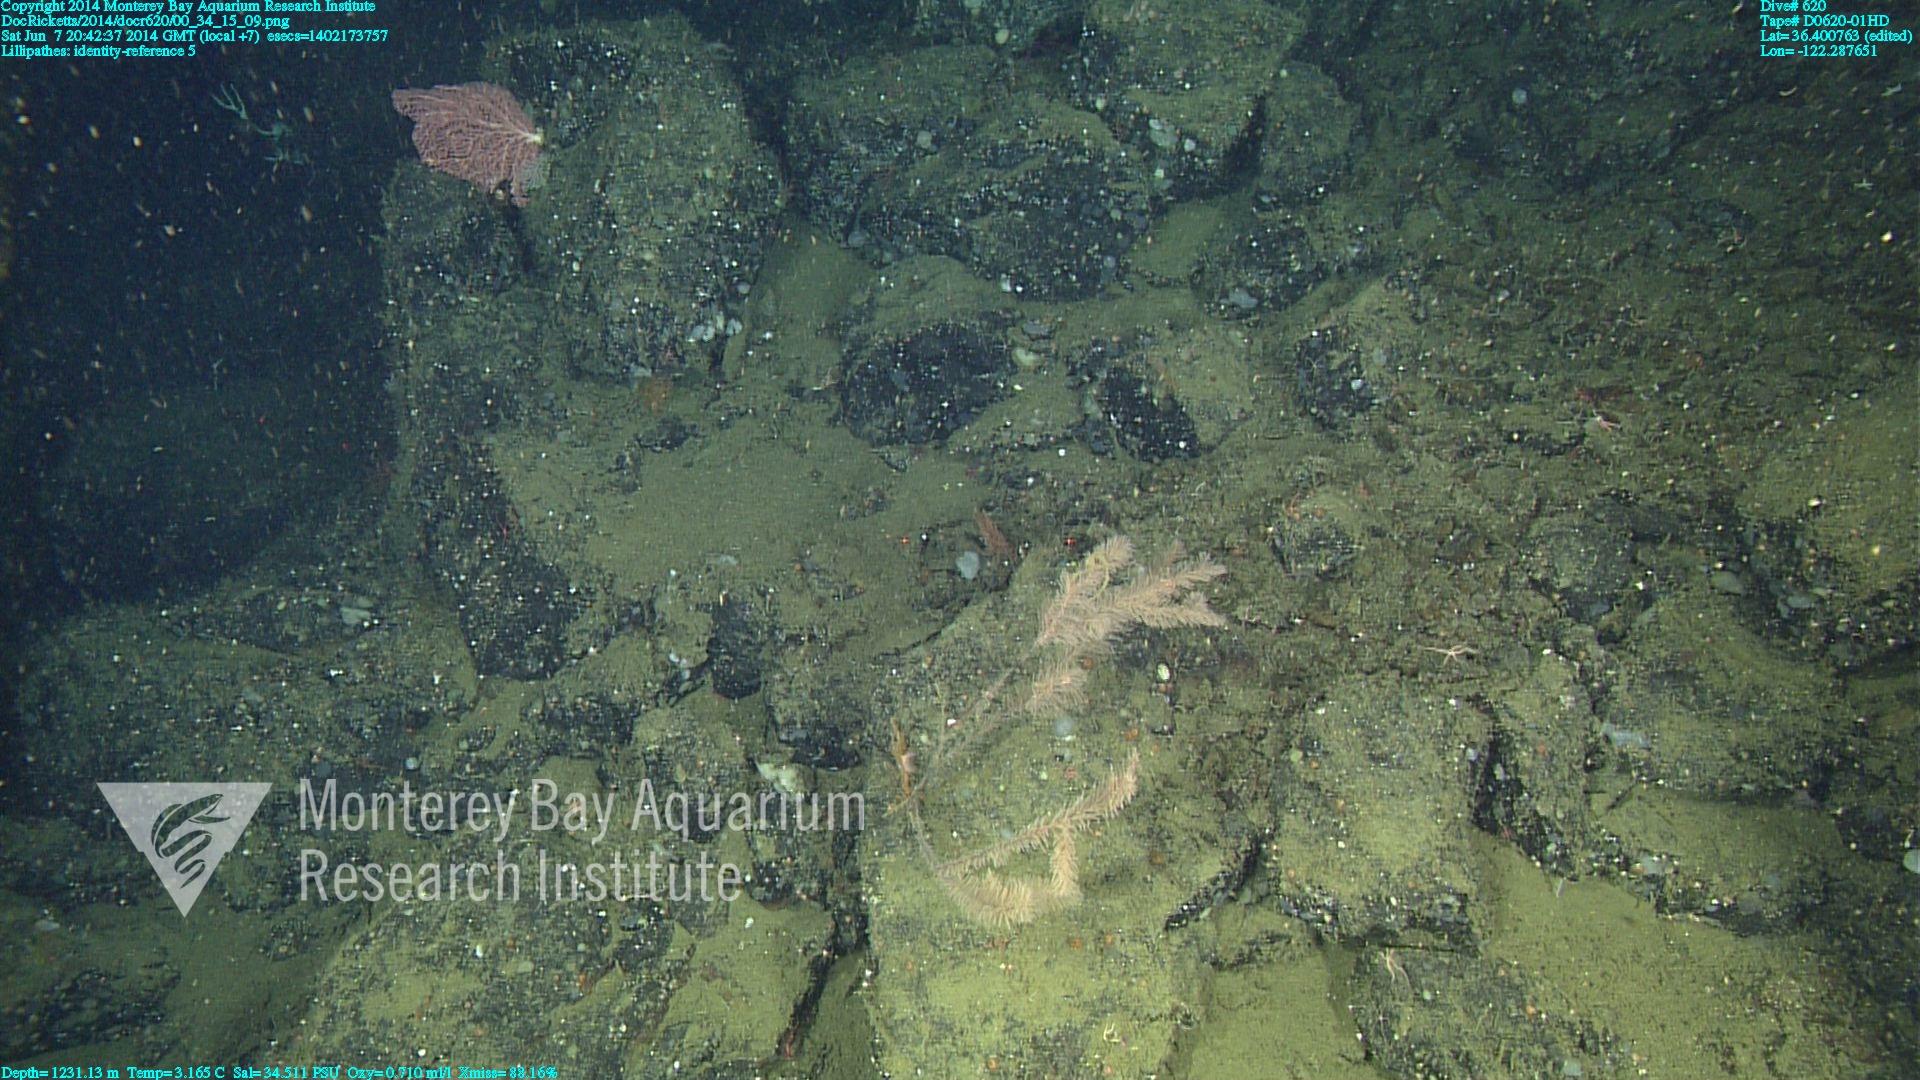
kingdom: Animalia
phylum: Cnidaria
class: Anthozoa
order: Antipatharia
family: Schizopathidae
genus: Lillipathes
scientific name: Lillipathes
